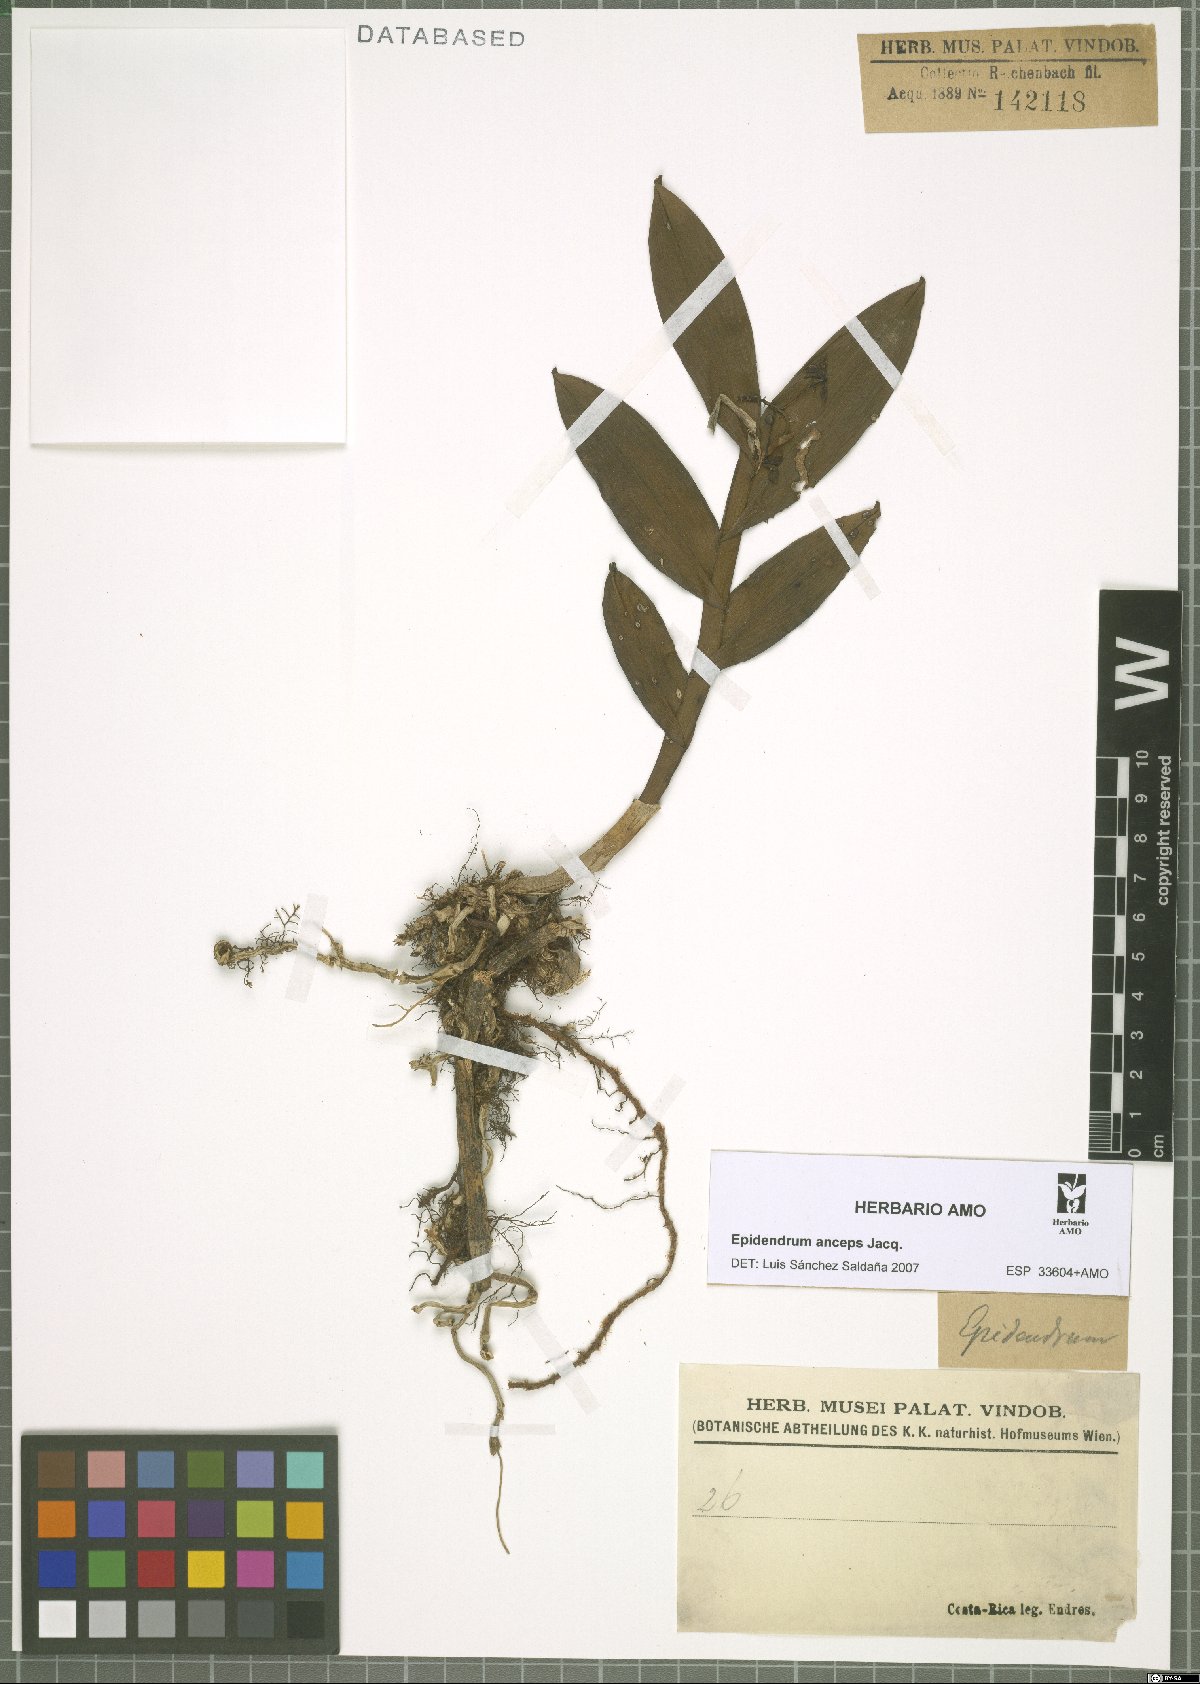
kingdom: Plantae
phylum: Tracheophyta
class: Liliopsida
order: Asparagales
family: Orchidaceae
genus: Epidendrum
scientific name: Epidendrum anceps
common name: Brown-flower butterfly orchid
